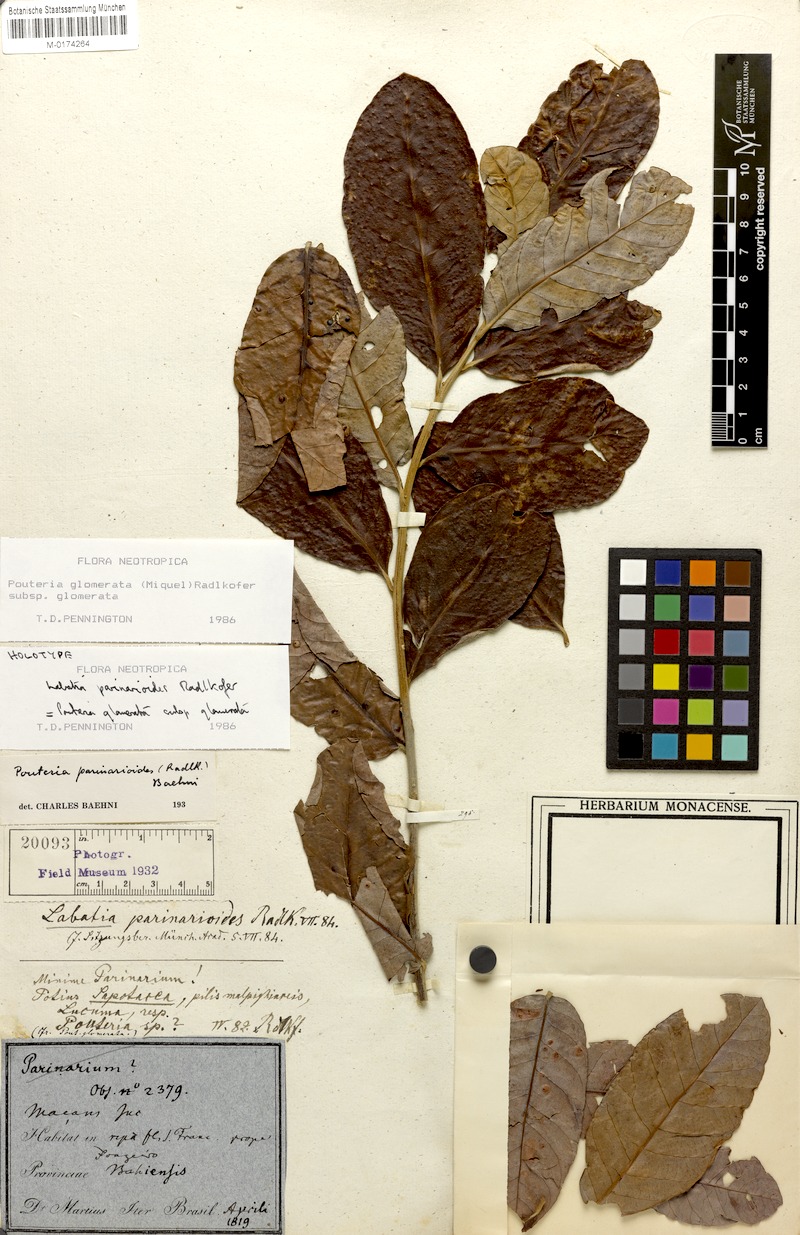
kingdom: Plantae
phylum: Tracheophyta
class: Magnoliopsida
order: Ericales
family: Sapotaceae
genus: Pouteria
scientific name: Pouteria glomerata
